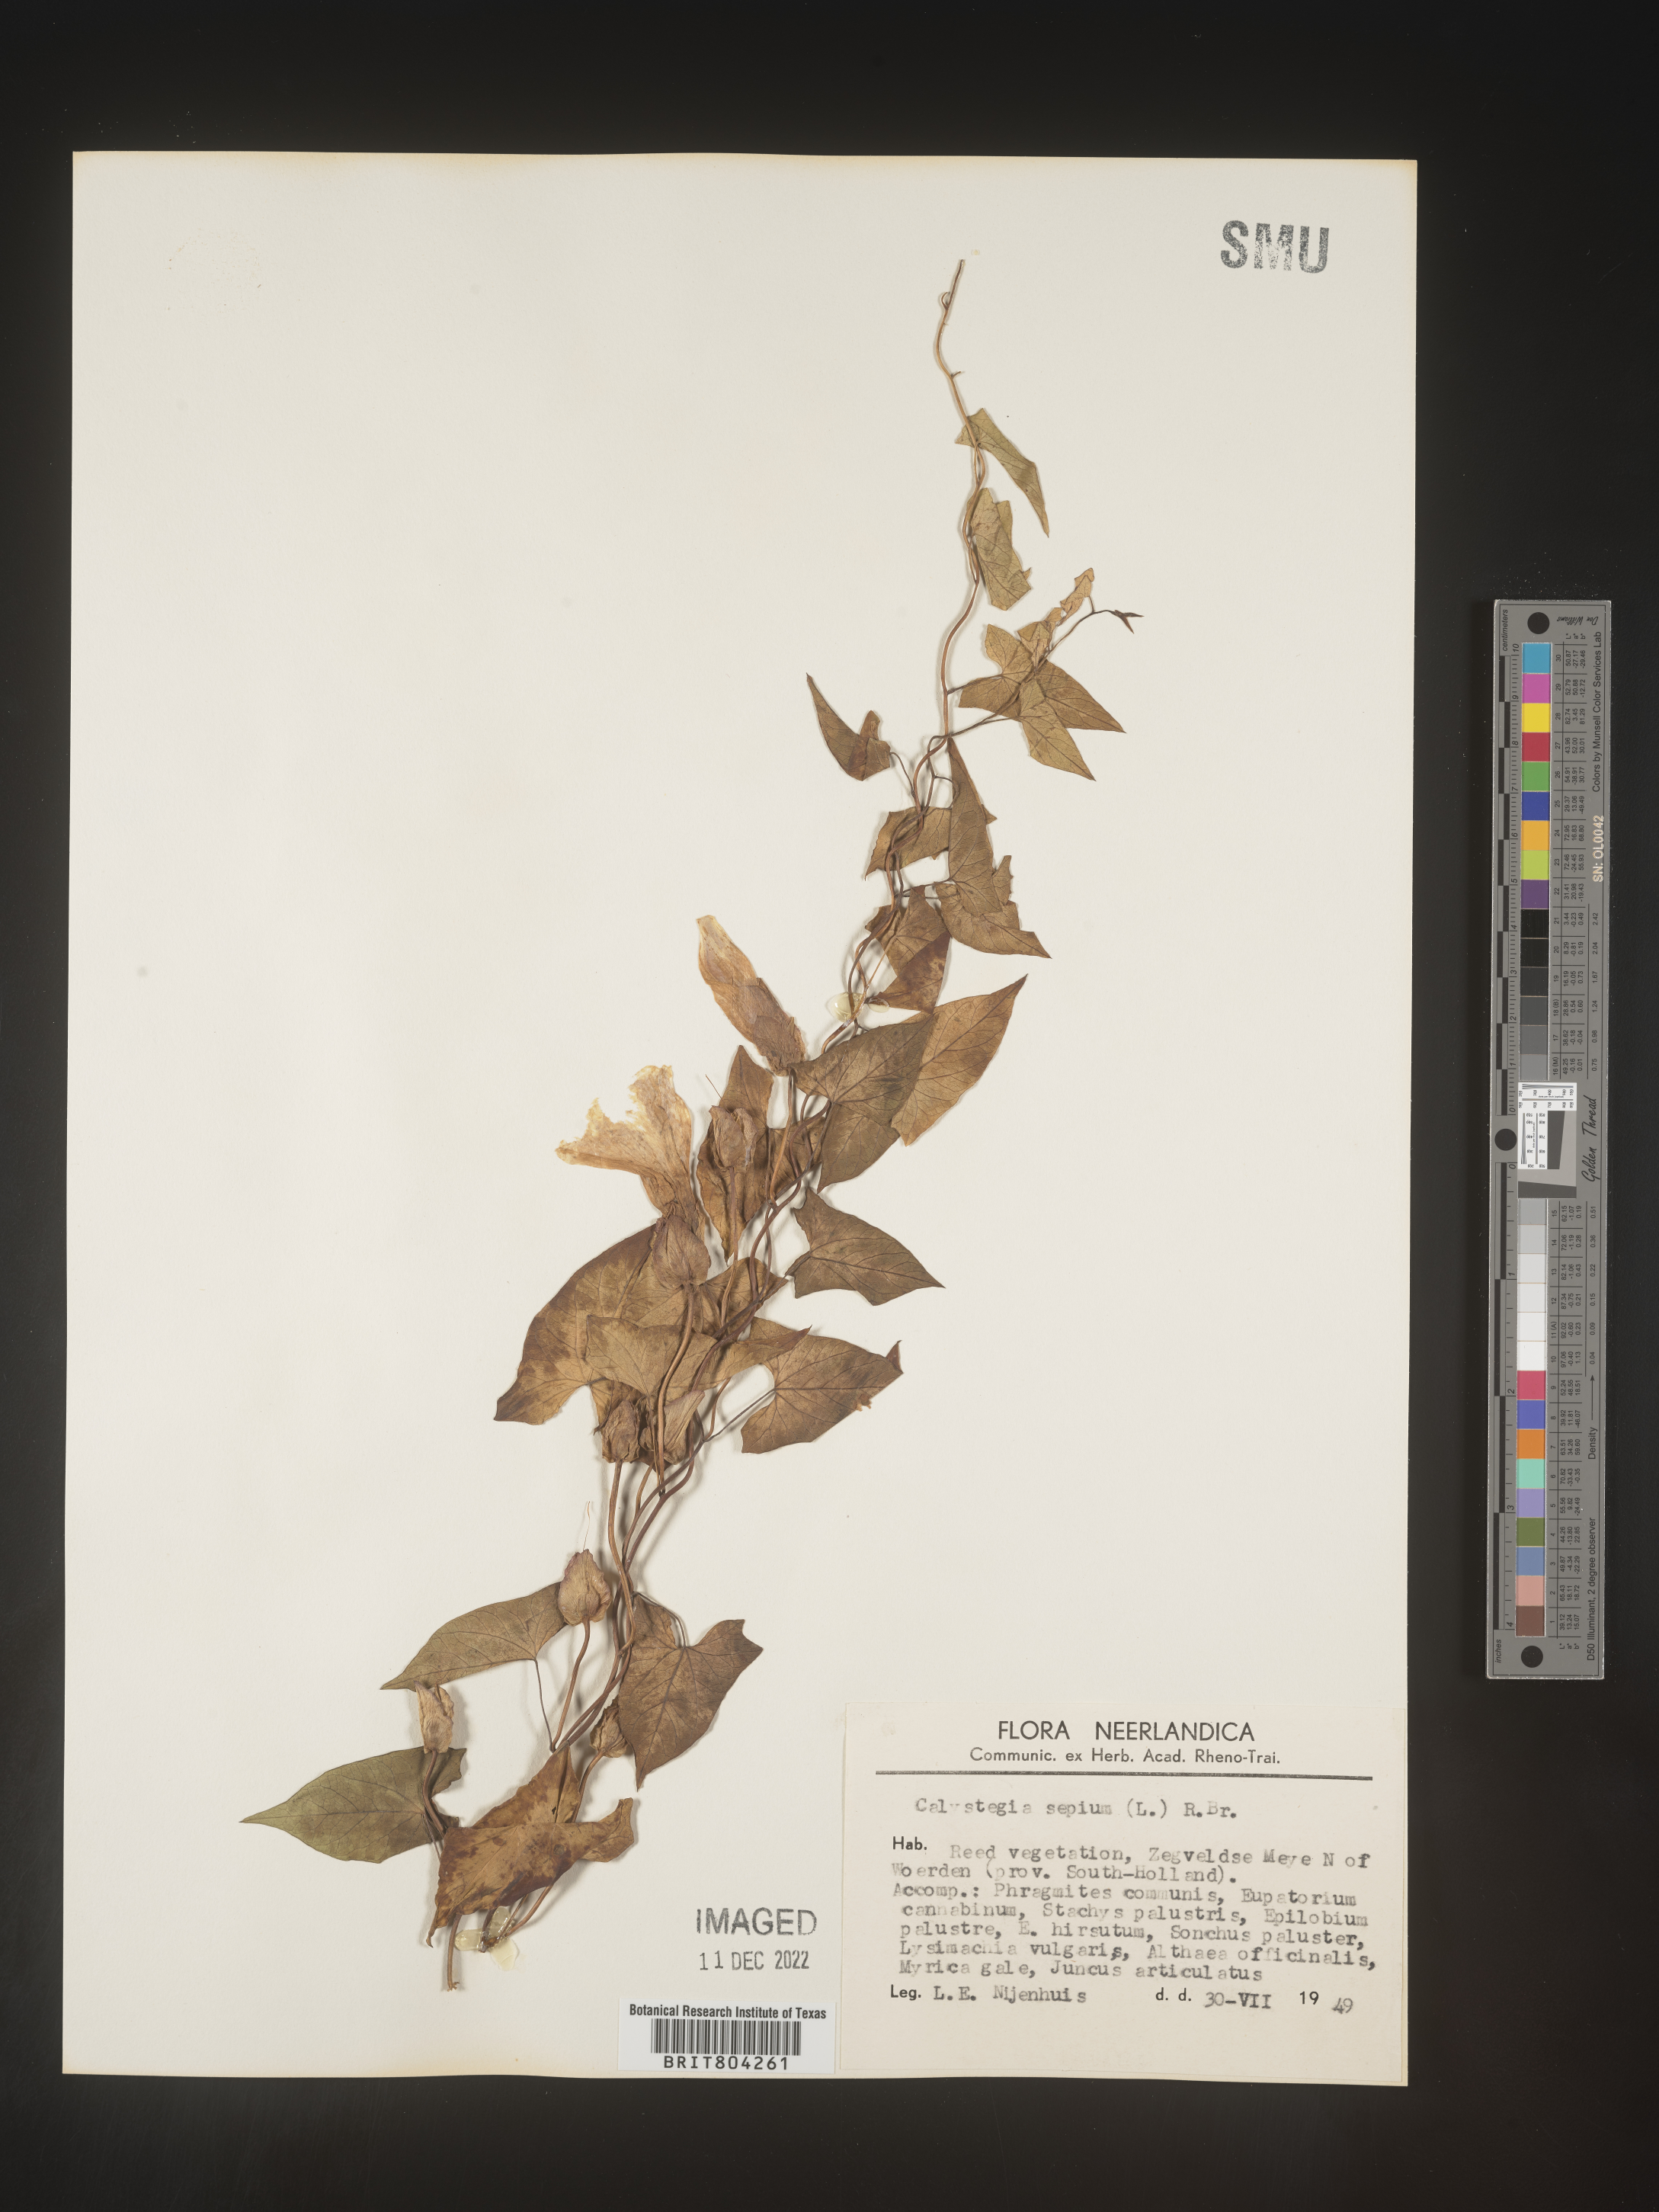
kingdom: Plantae
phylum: Tracheophyta
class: Magnoliopsida
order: Solanales
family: Convolvulaceae
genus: Calystegia
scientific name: Calystegia
